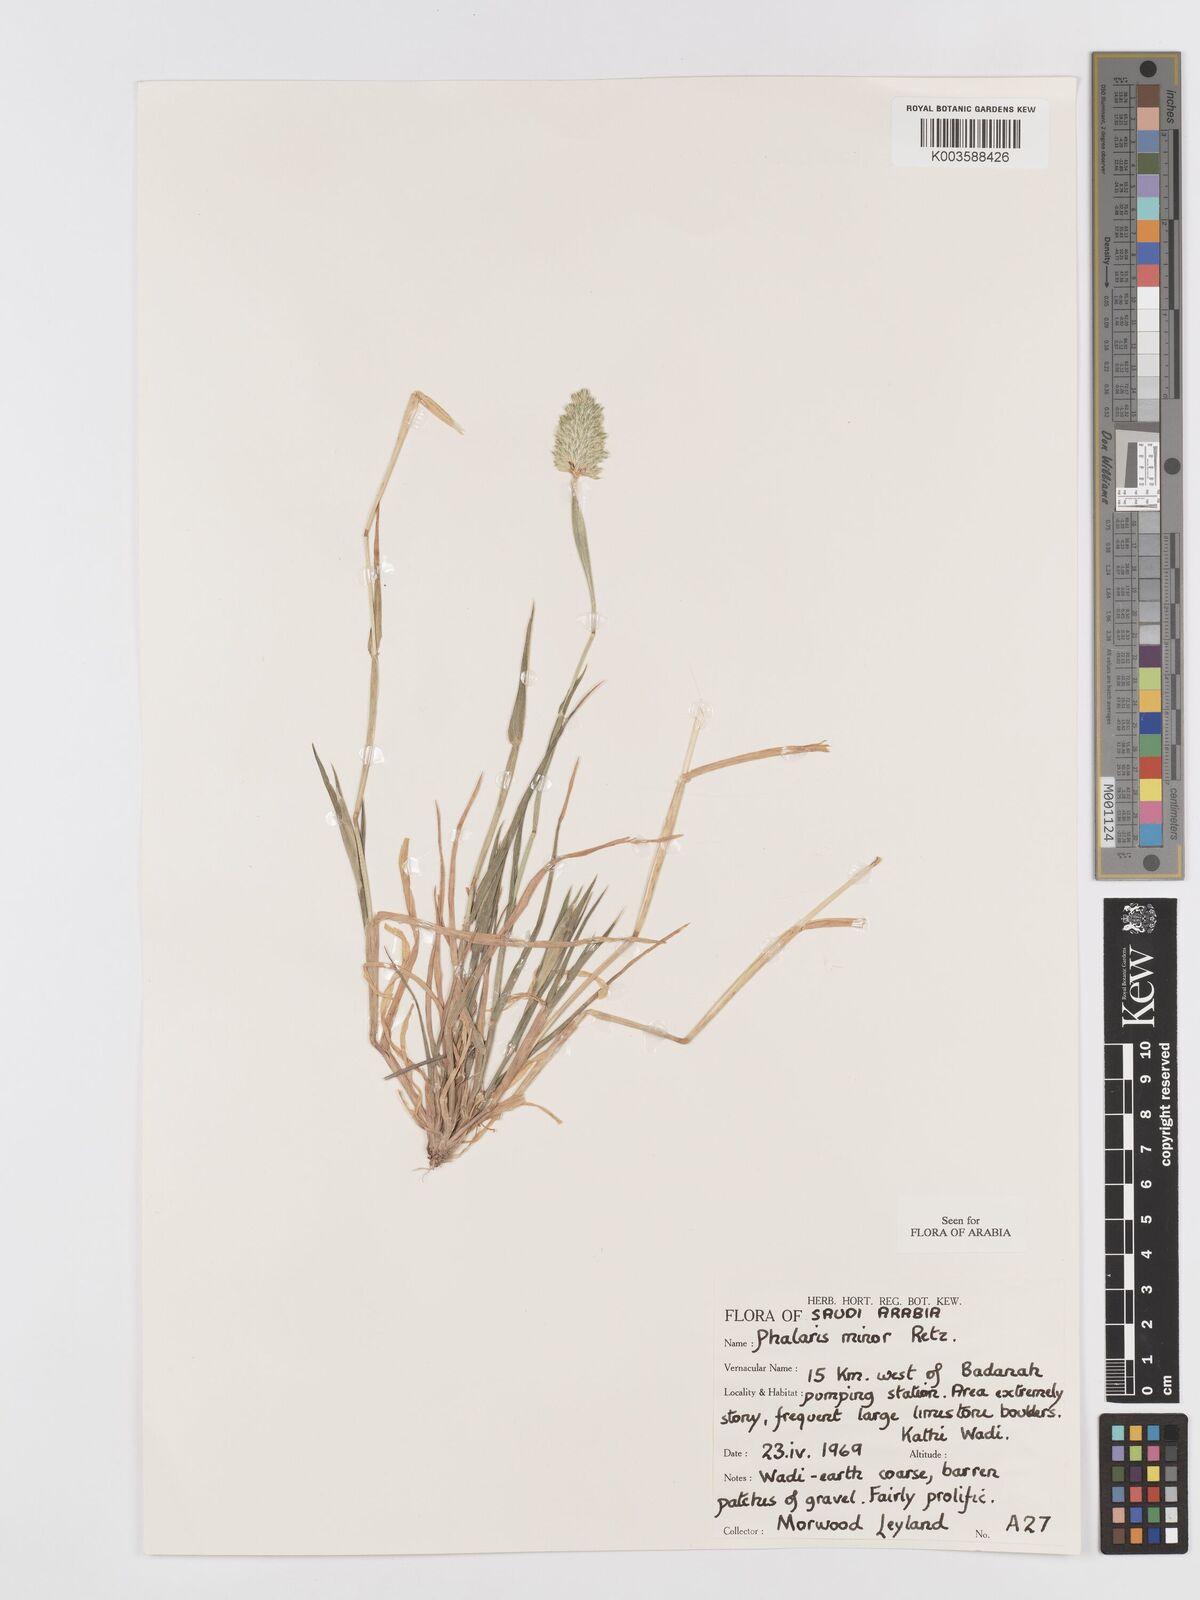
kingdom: Plantae
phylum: Tracheophyta
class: Liliopsida
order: Poales
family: Poaceae
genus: Phalaris
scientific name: Phalaris minor
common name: Littleseed canarygrass
